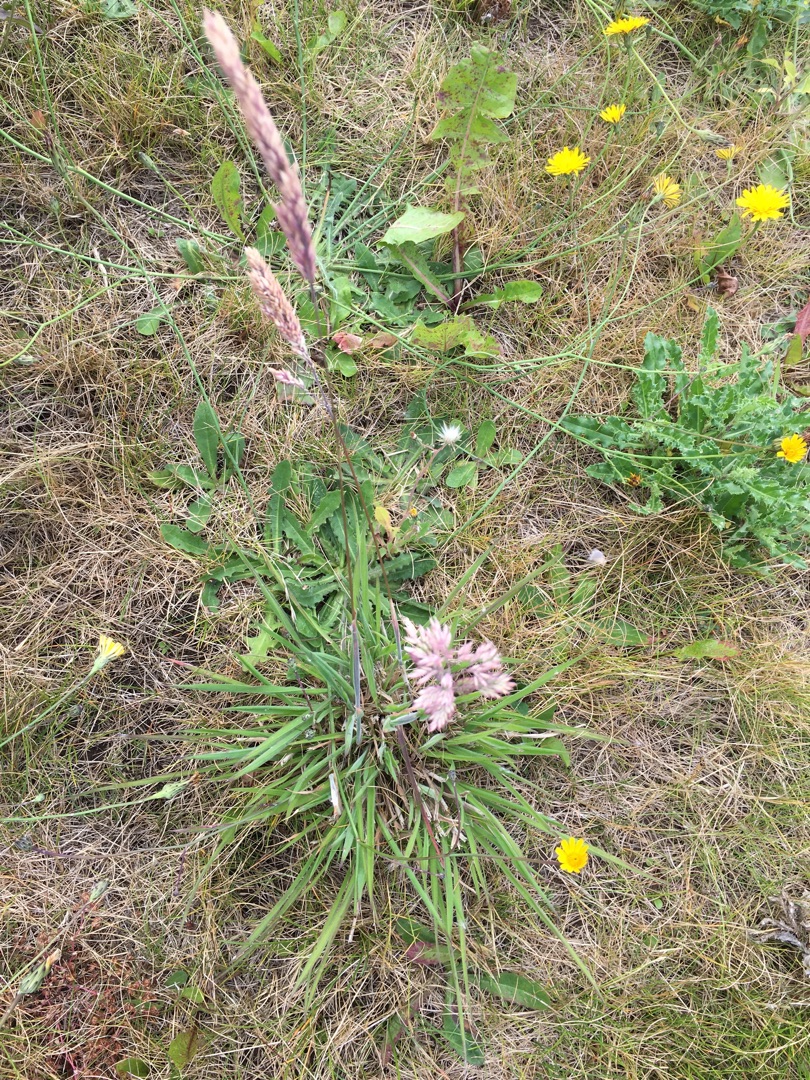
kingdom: Plantae
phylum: Tracheophyta
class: Liliopsida
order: Poales
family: Poaceae
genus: Holcus
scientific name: Holcus lanatus
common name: Fløjlsgræs
